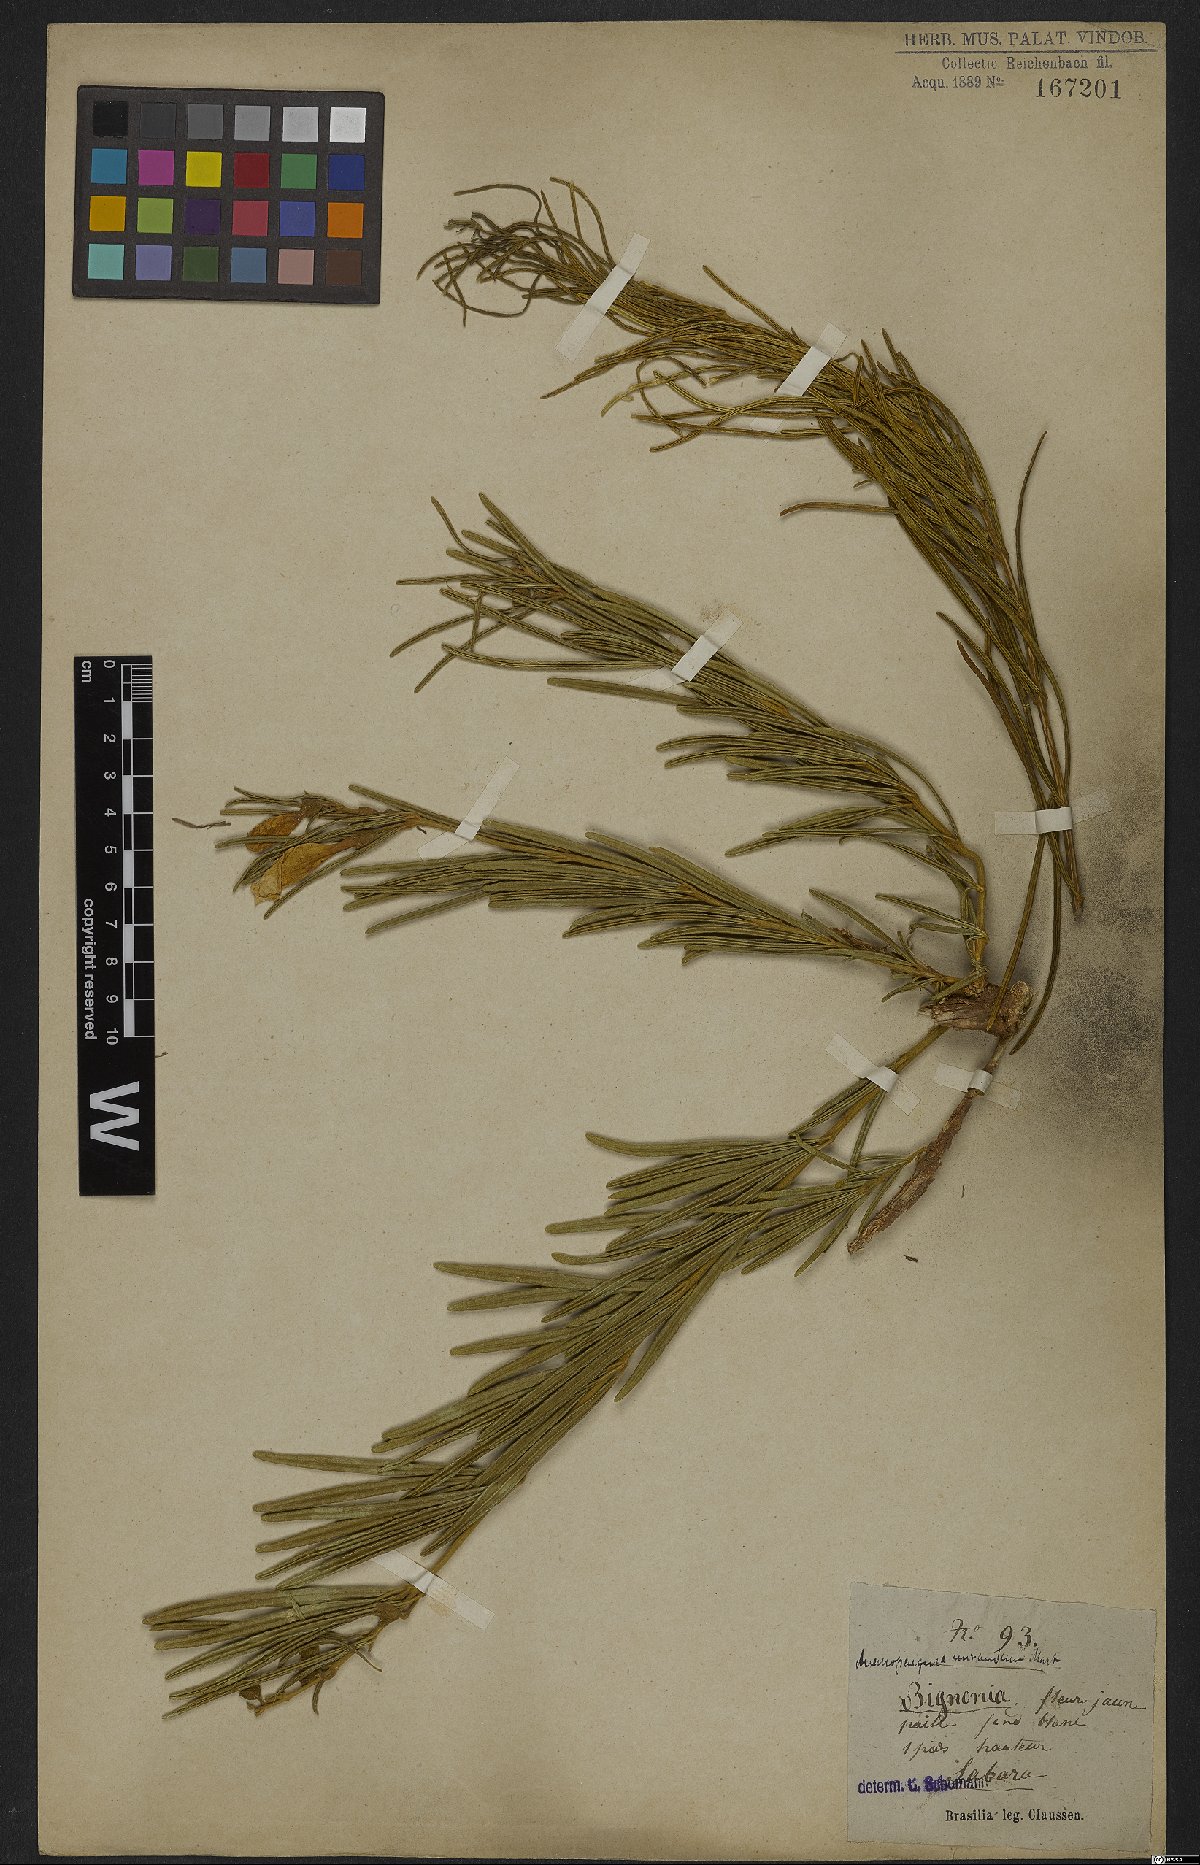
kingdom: Plantae
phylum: Tracheophyta
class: Magnoliopsida
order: Lamiales
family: Bignoniaceae
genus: Anemopaegma
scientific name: Anemopaegma arvense
